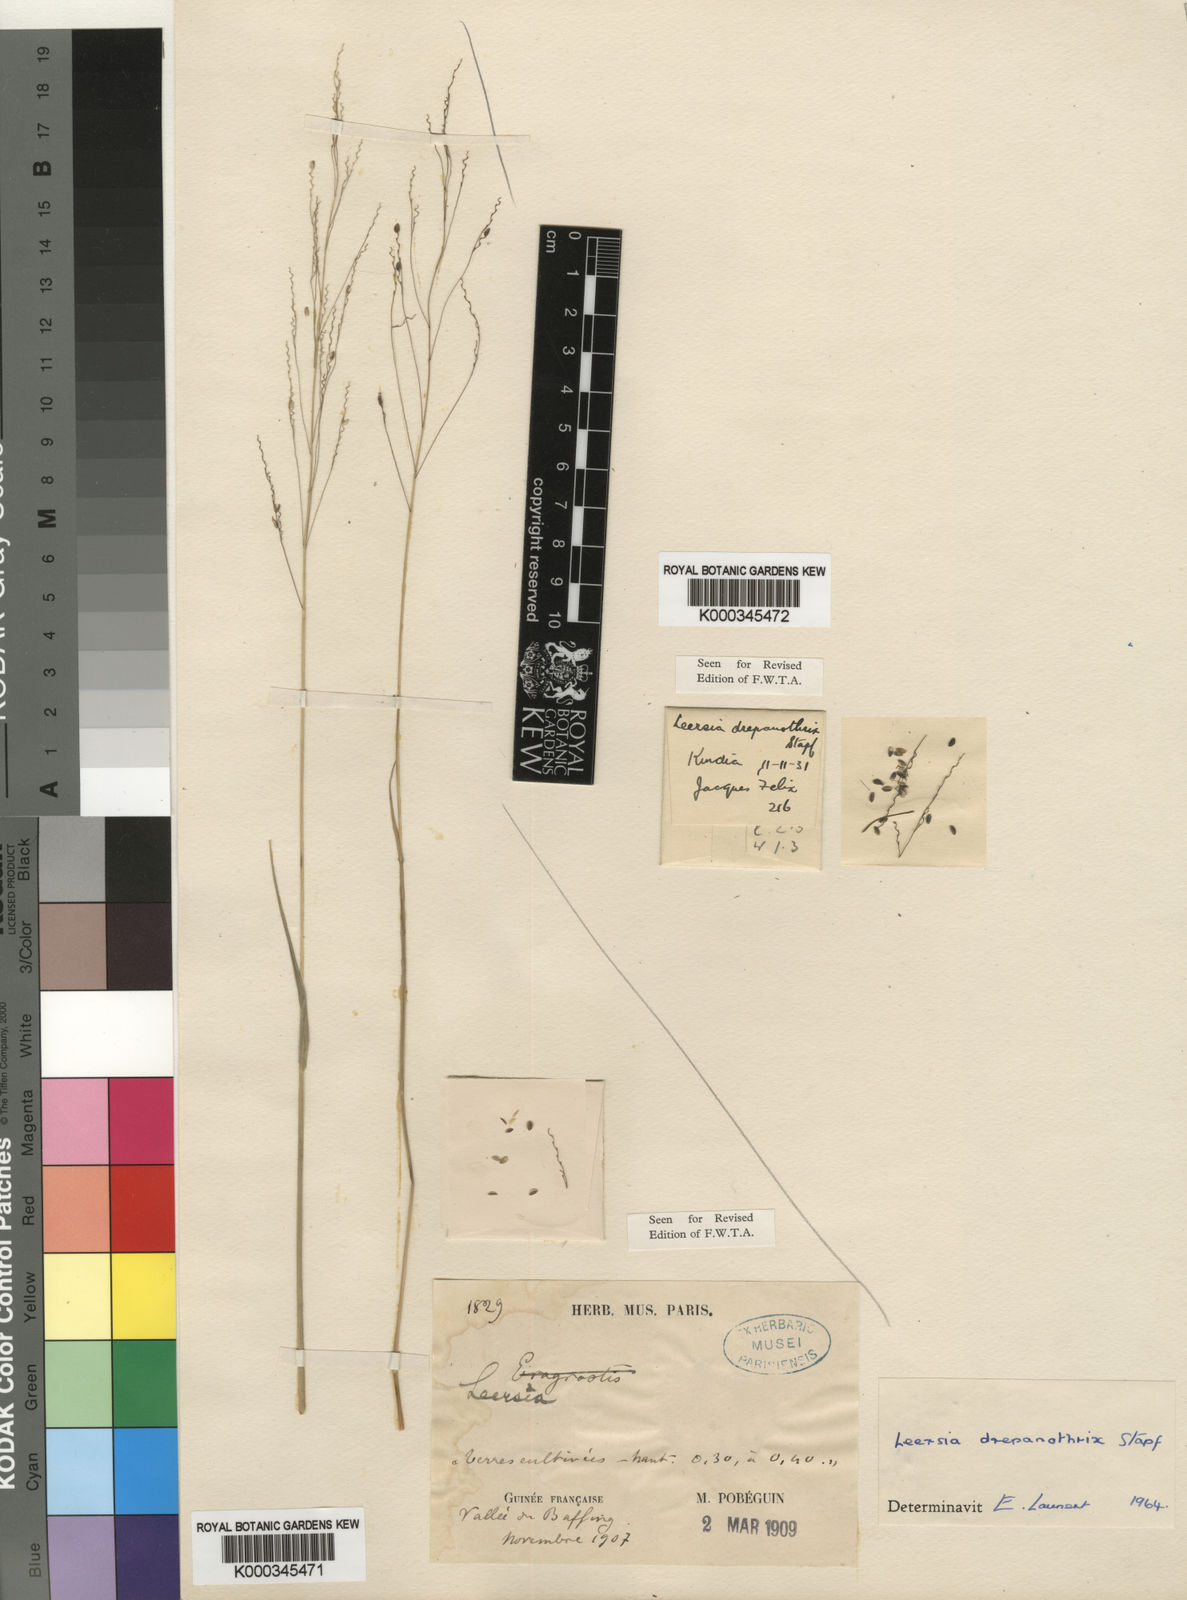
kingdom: Plantae
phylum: Tracheophyta
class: Liliopsida
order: Poales
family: Poaceae
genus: Leersia
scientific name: Leersia drepanothrix
